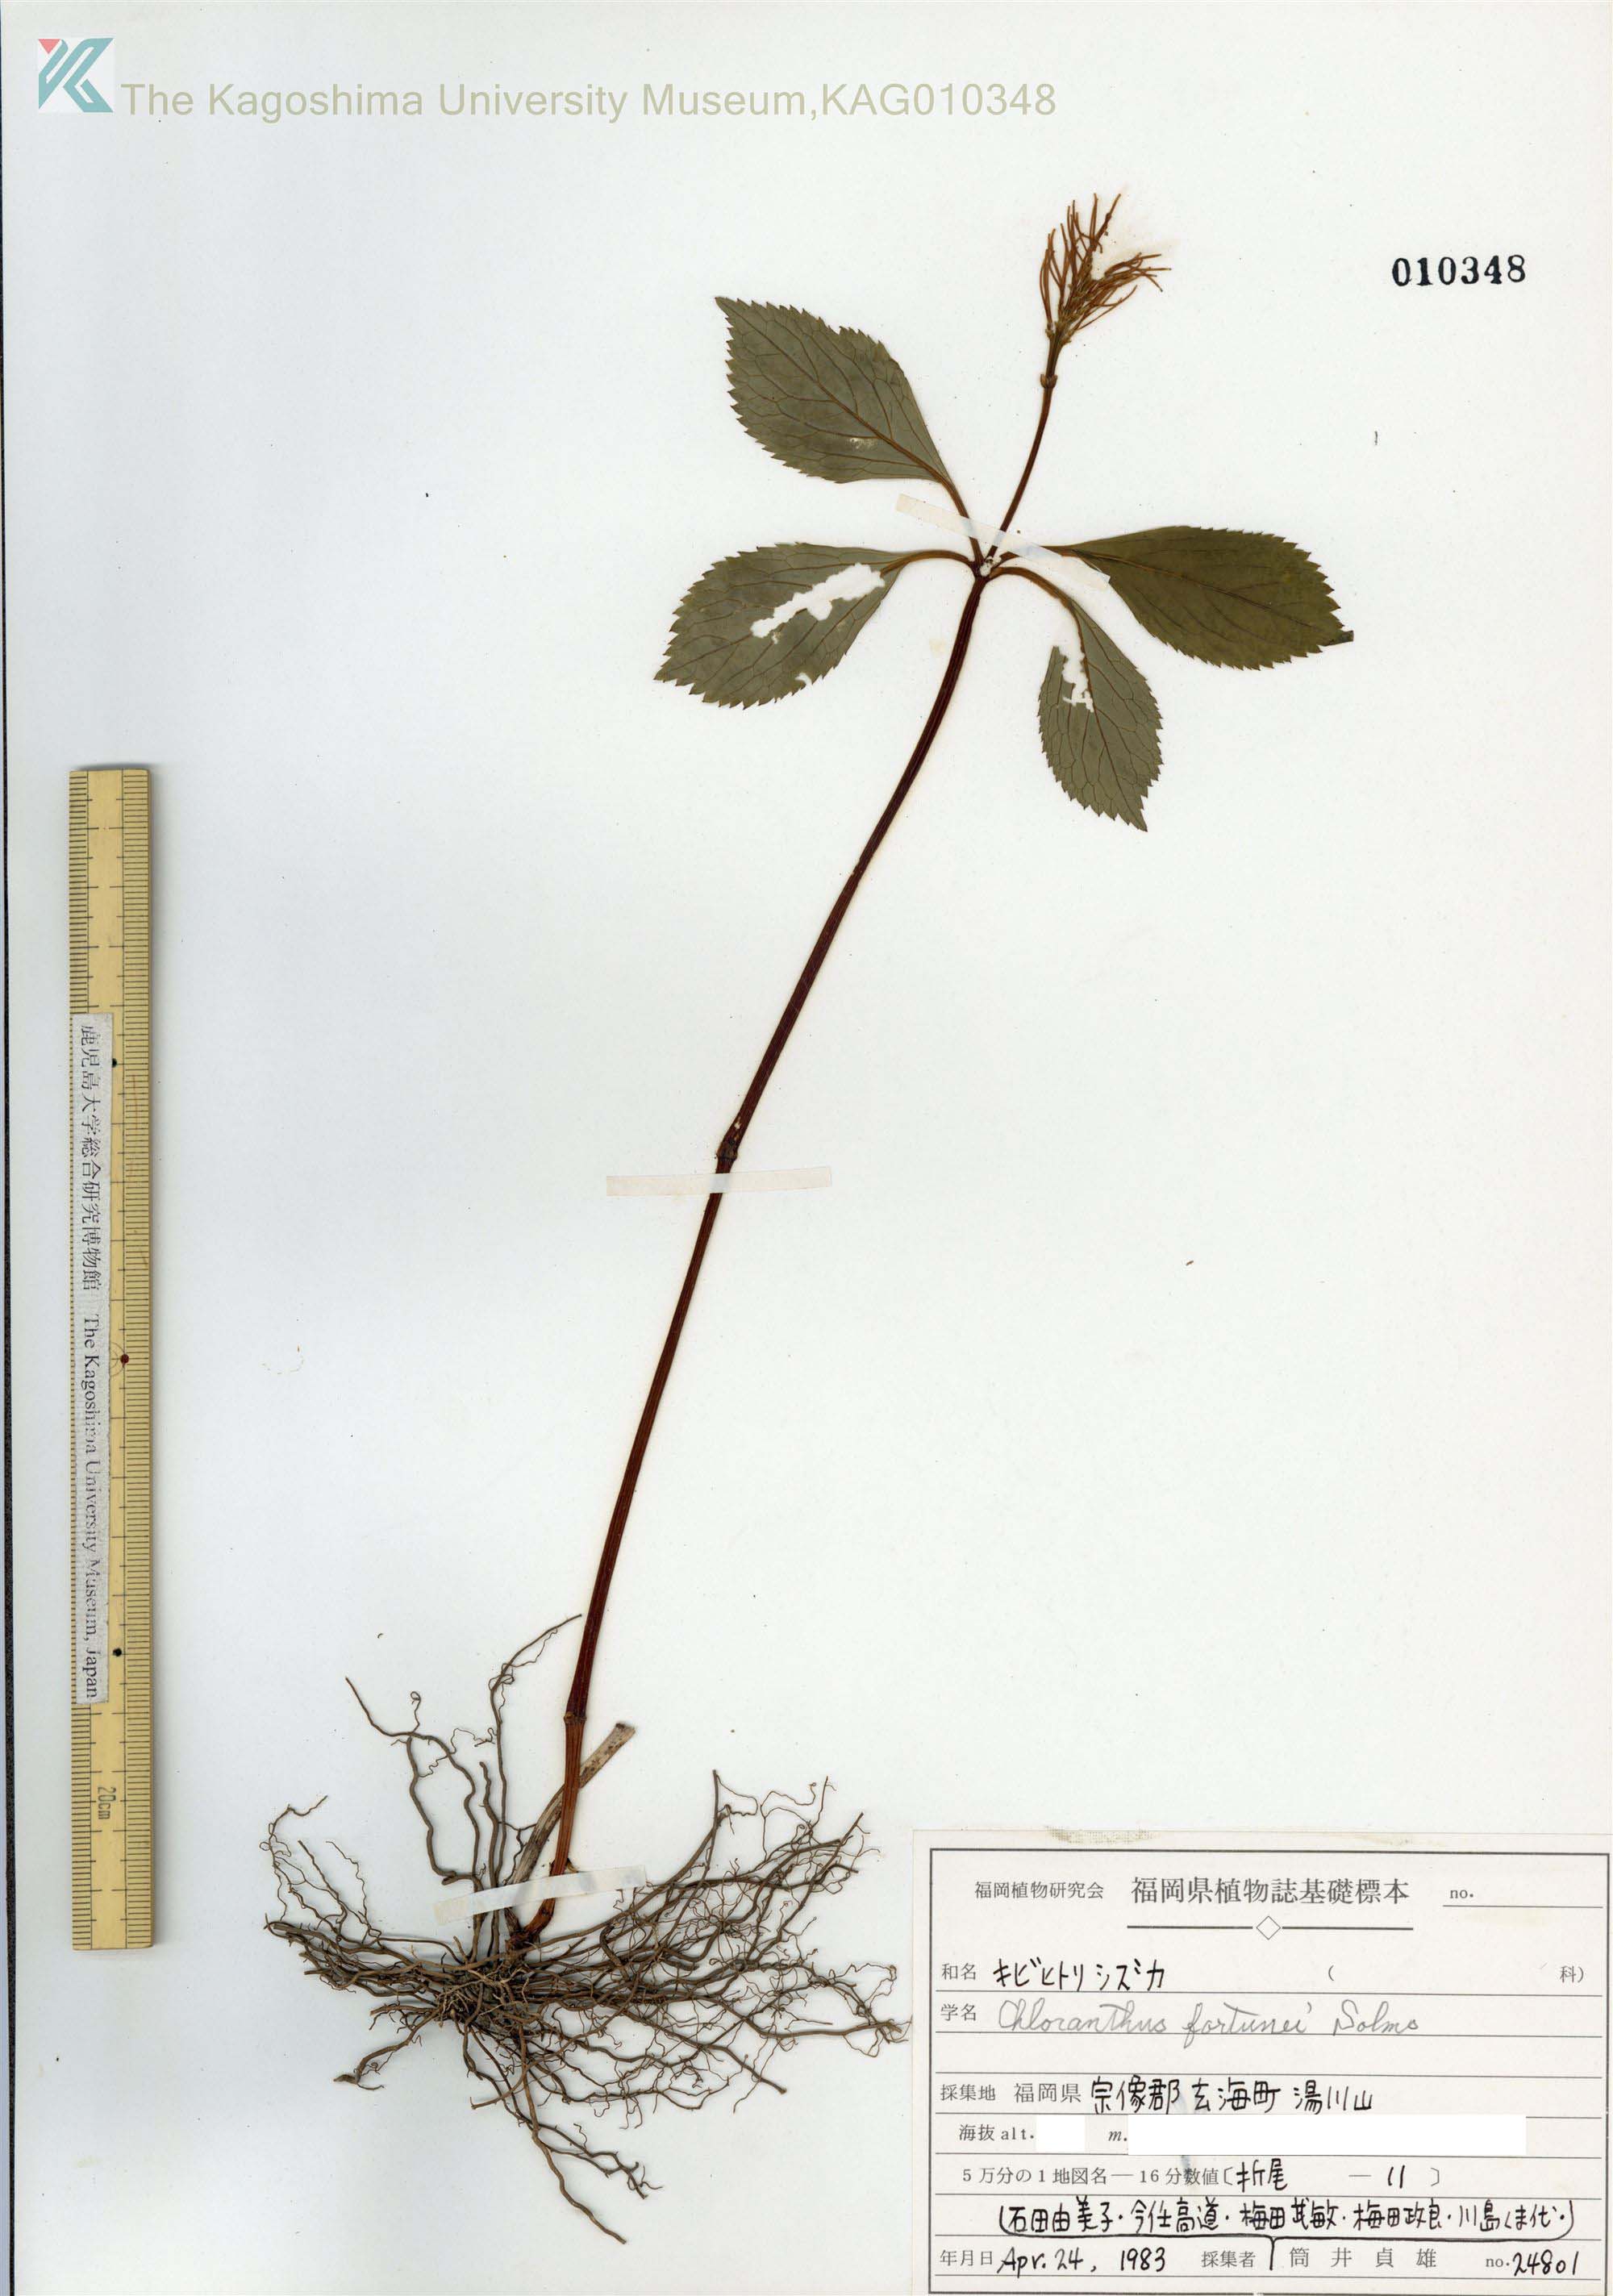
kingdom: Plantae
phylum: Tracheophyta
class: Magnoliopsida
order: Chloranthales
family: Chloranthaceae
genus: Chloranthus
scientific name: Chloranthus fortunei
